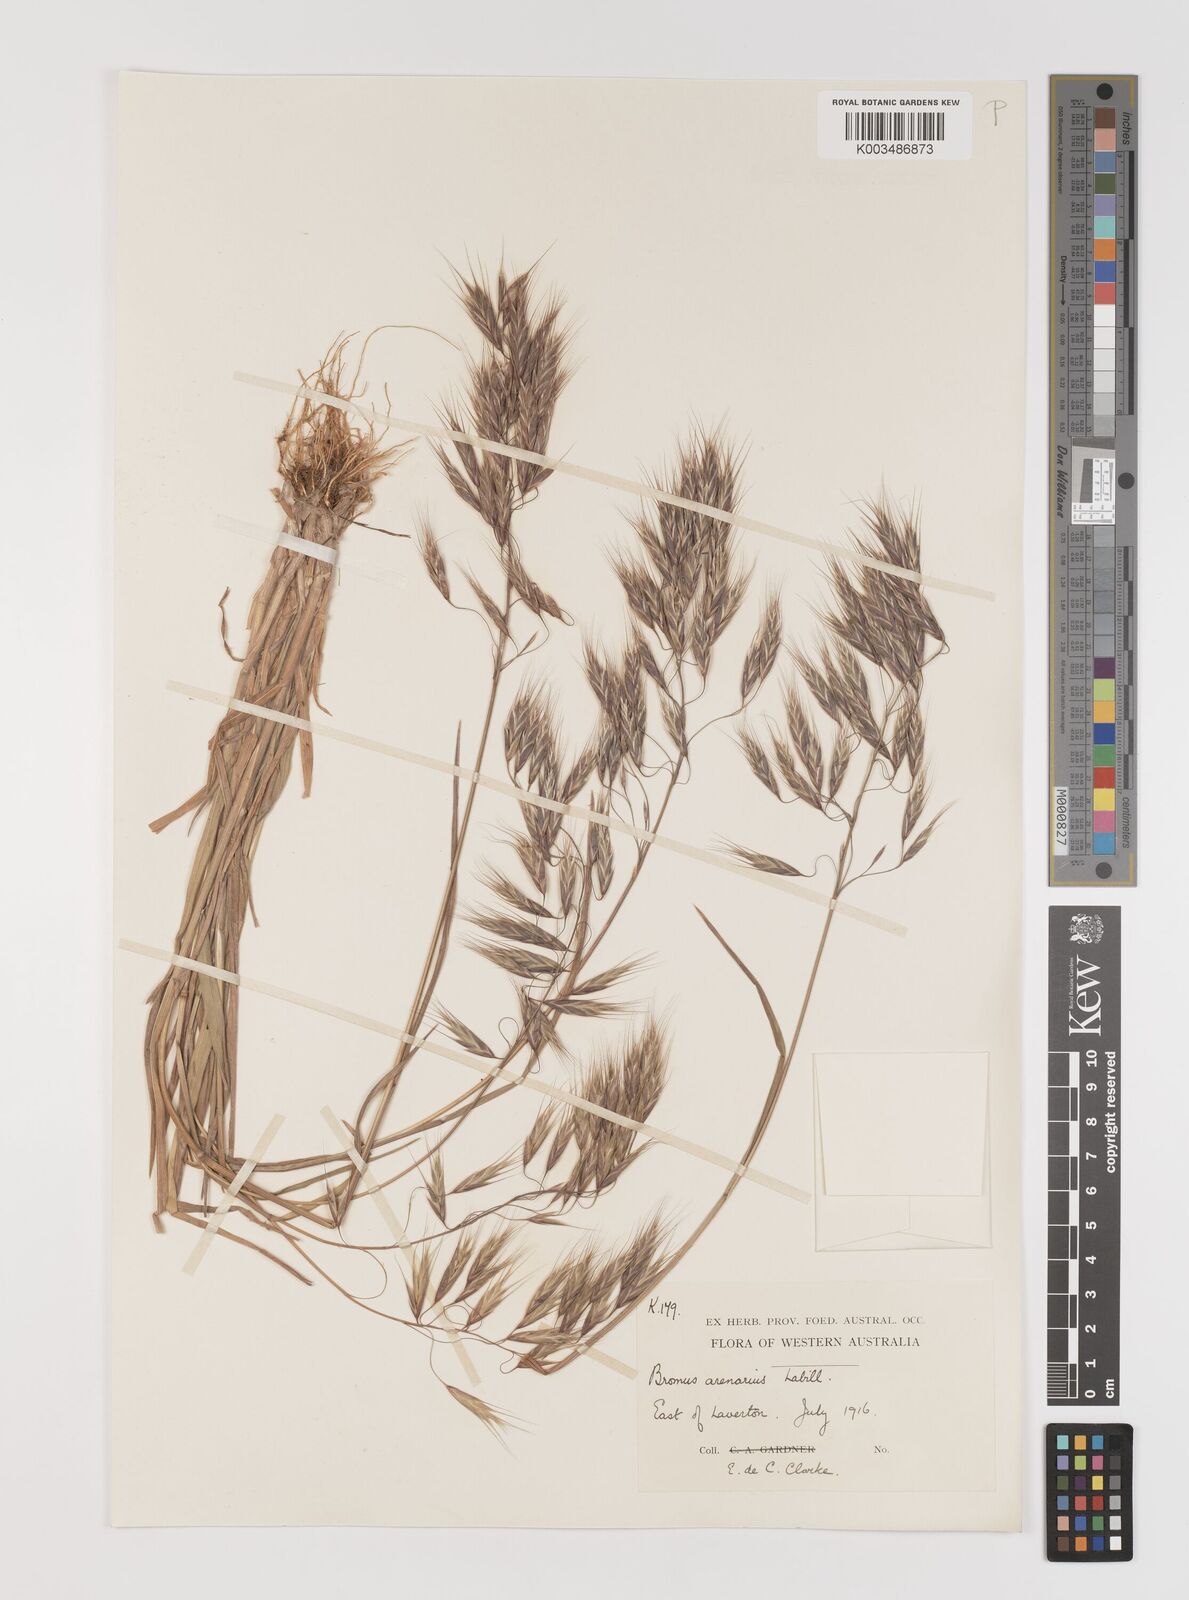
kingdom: Plantae
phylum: Tracheophyta
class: Liliopsida
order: Poales
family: Poaceae
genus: Bromus
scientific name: Bromus arenarius
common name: Australian brome
